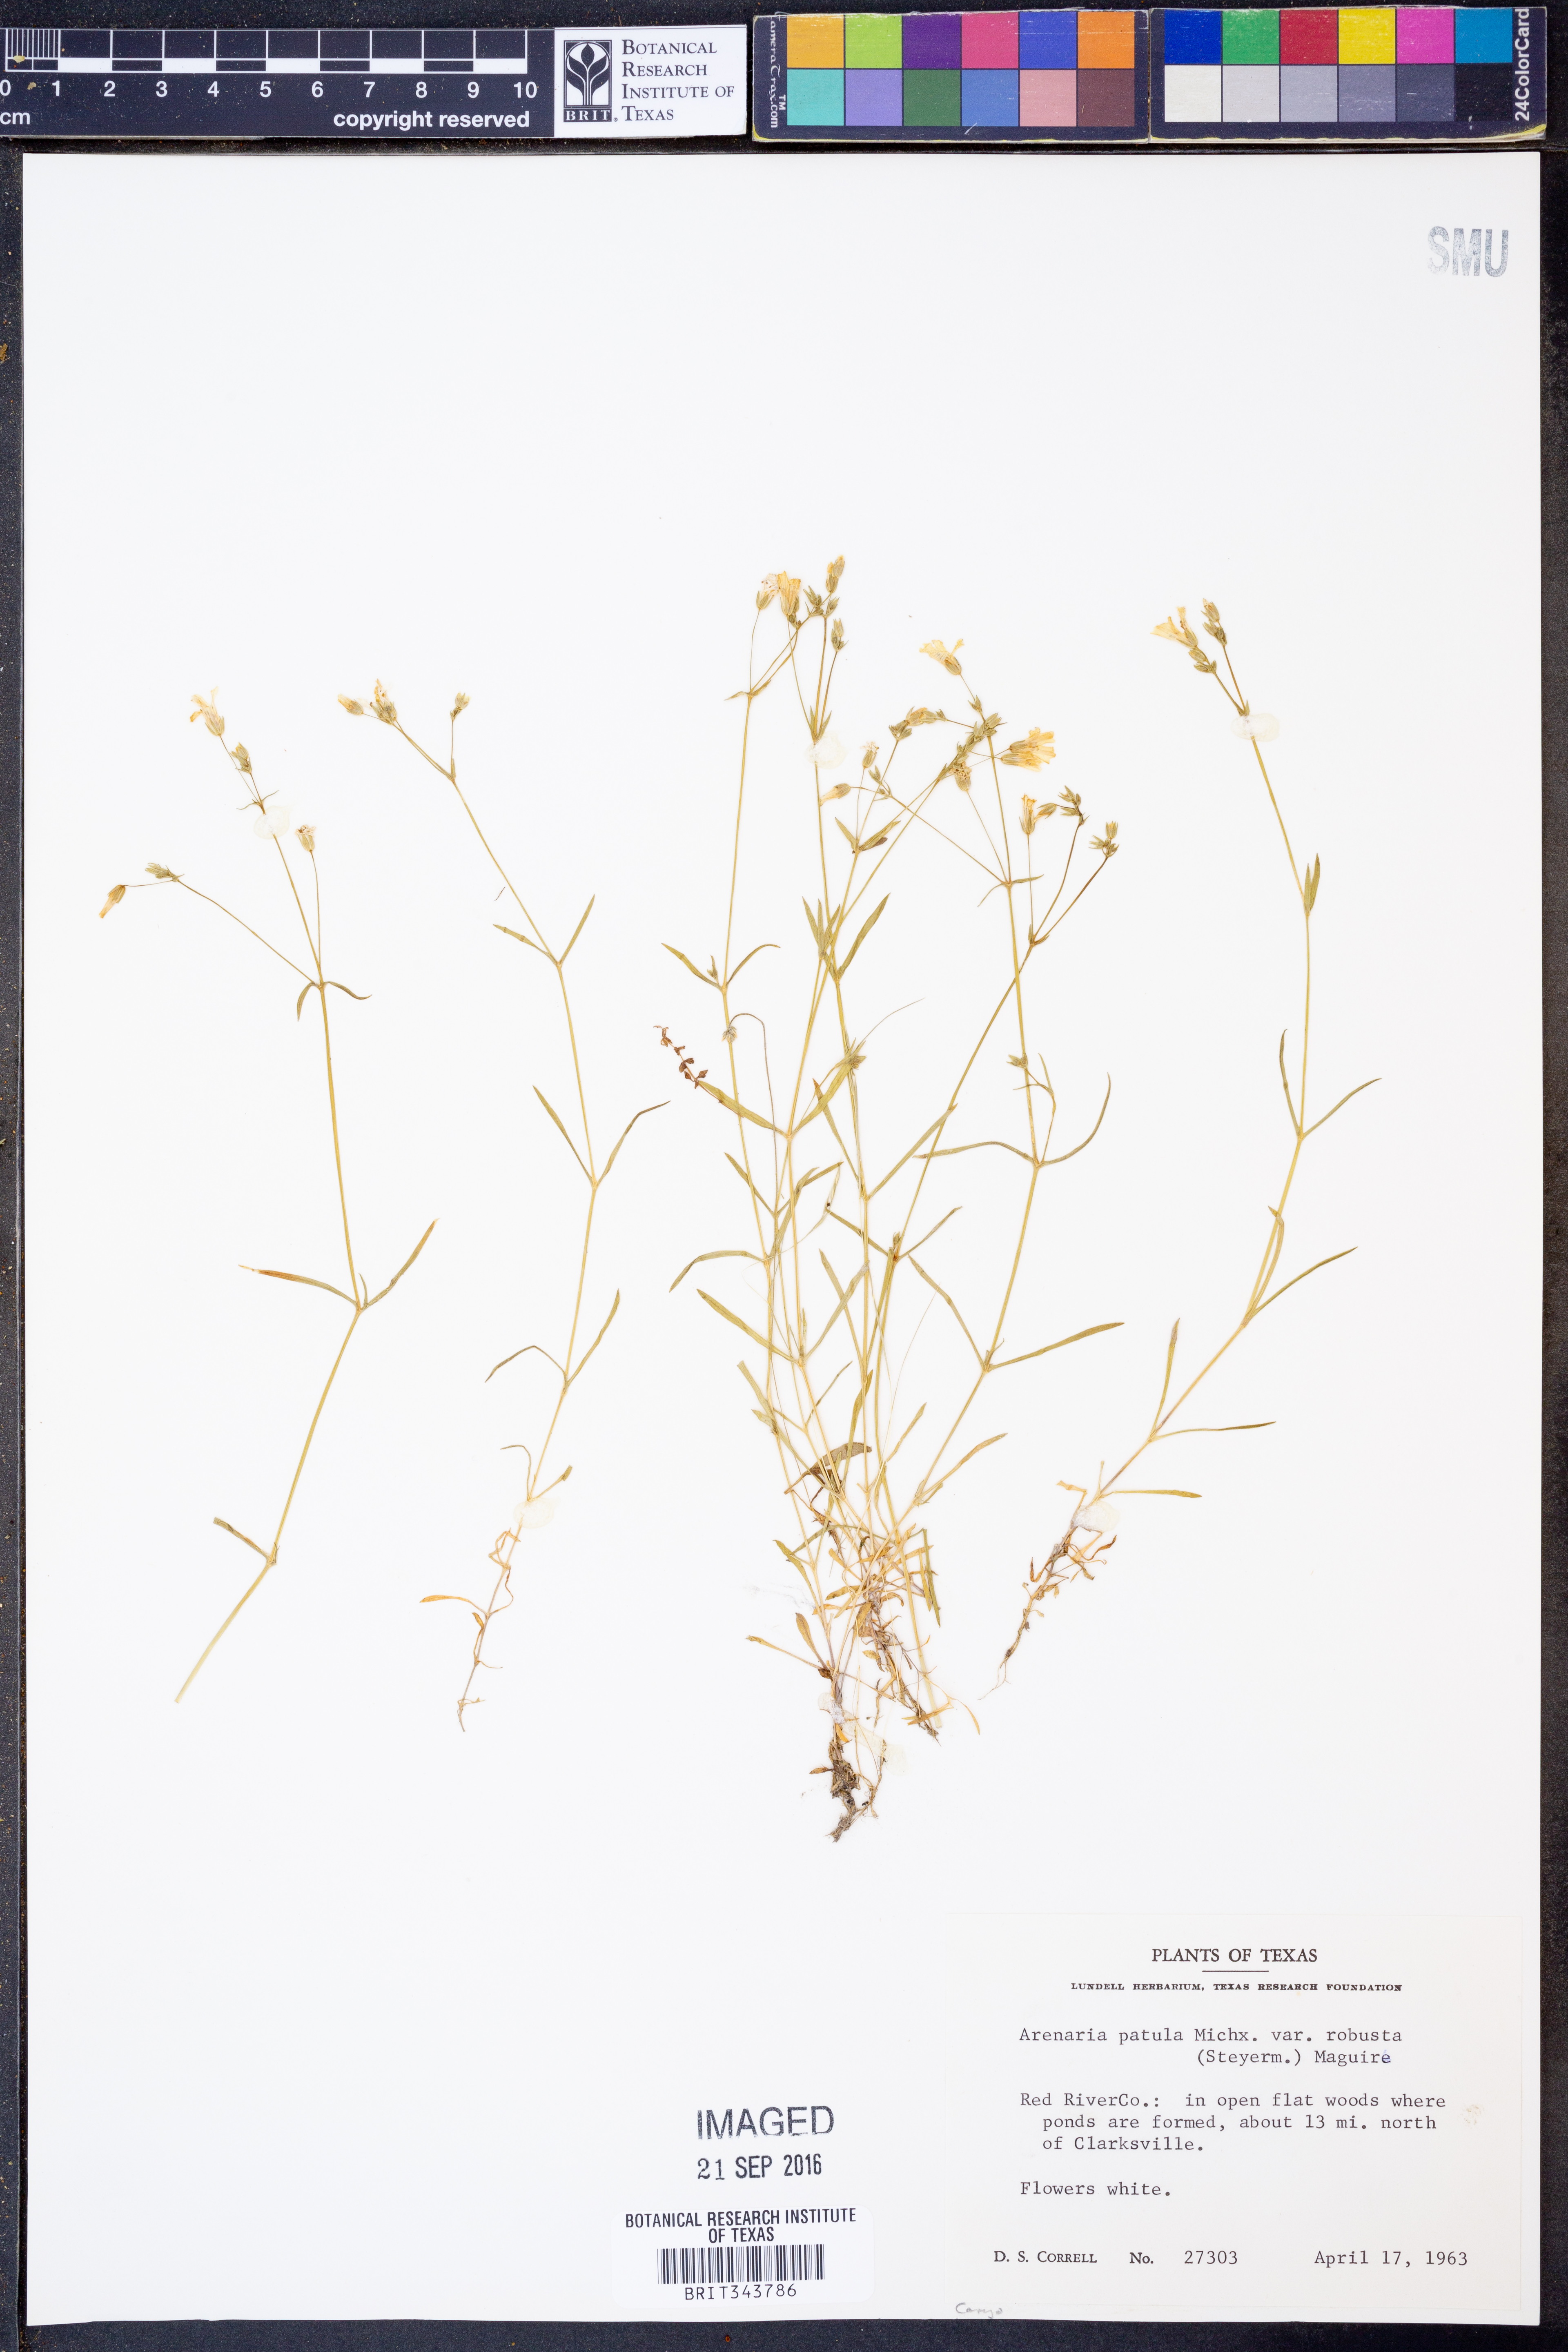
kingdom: Plantae
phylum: Tracheophyta
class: Magnoliopsida
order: Caryophyllales
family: Caryophyllaceae
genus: Mononeuria
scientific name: Mononeuria muscorum
